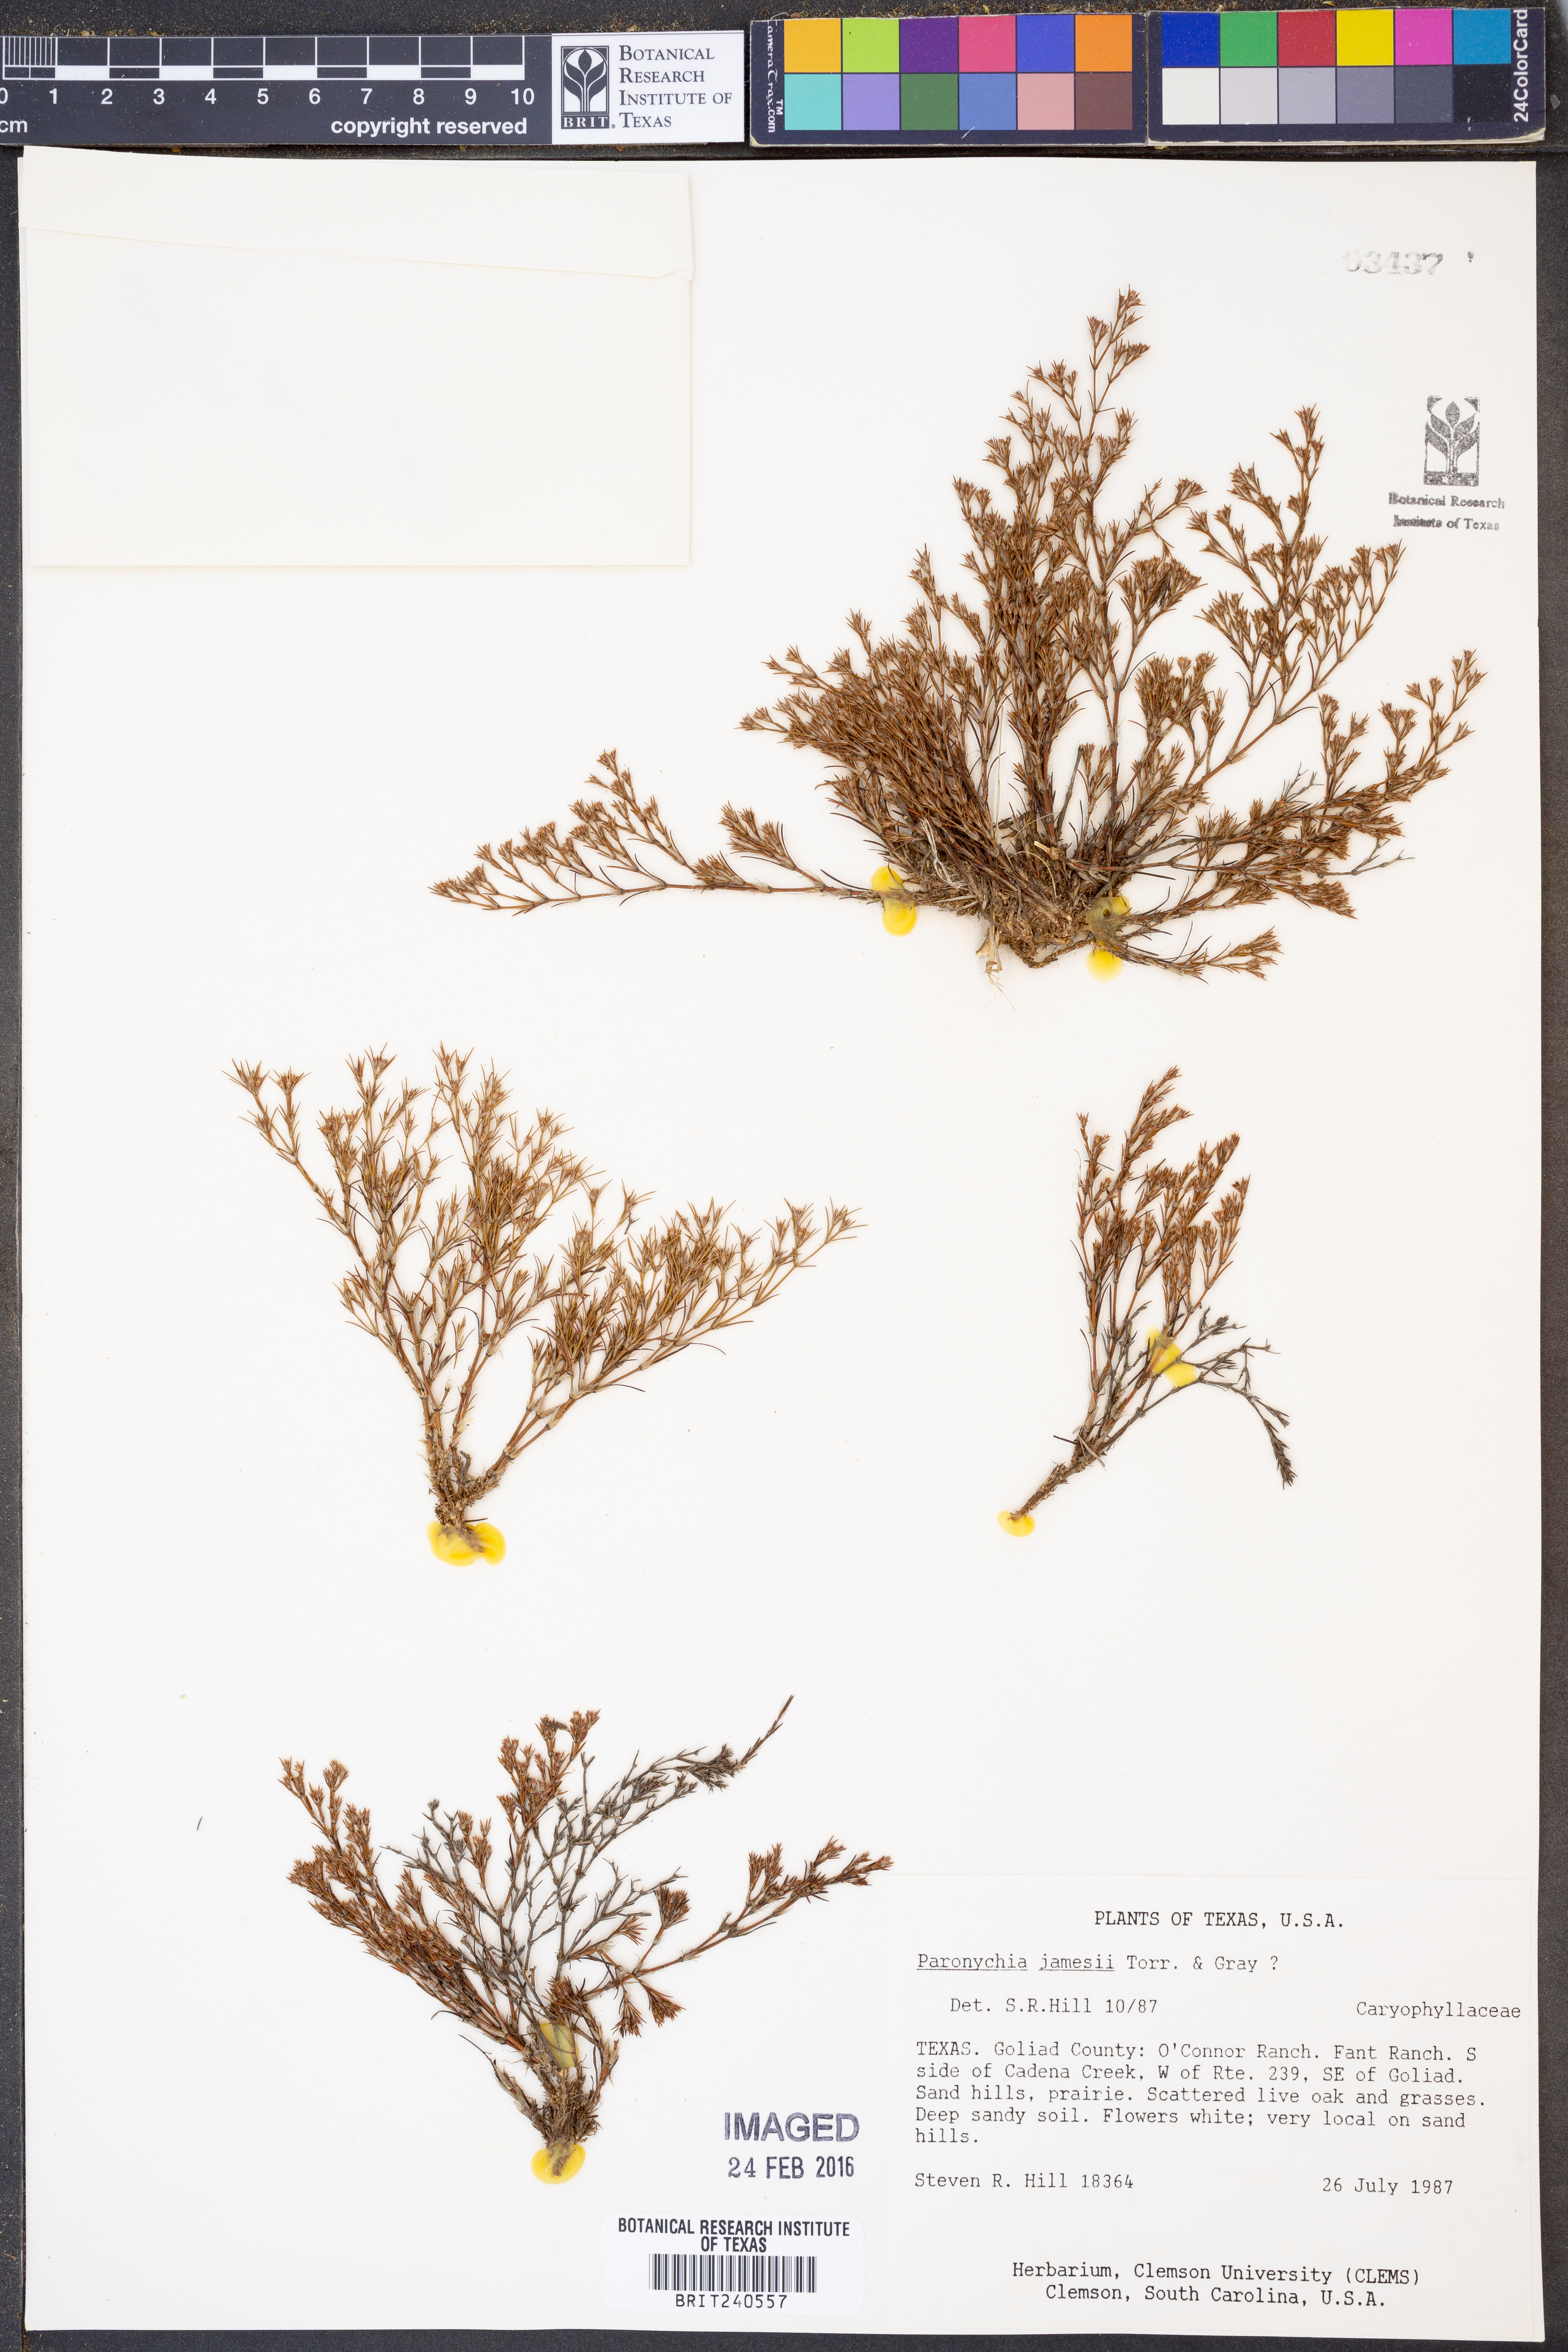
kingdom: Plantae
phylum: Tracheophyta
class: Magnoliopsida
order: Caryophyllales
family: Caryophyllaceae
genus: Paronychia
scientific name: Paronychia setacea
